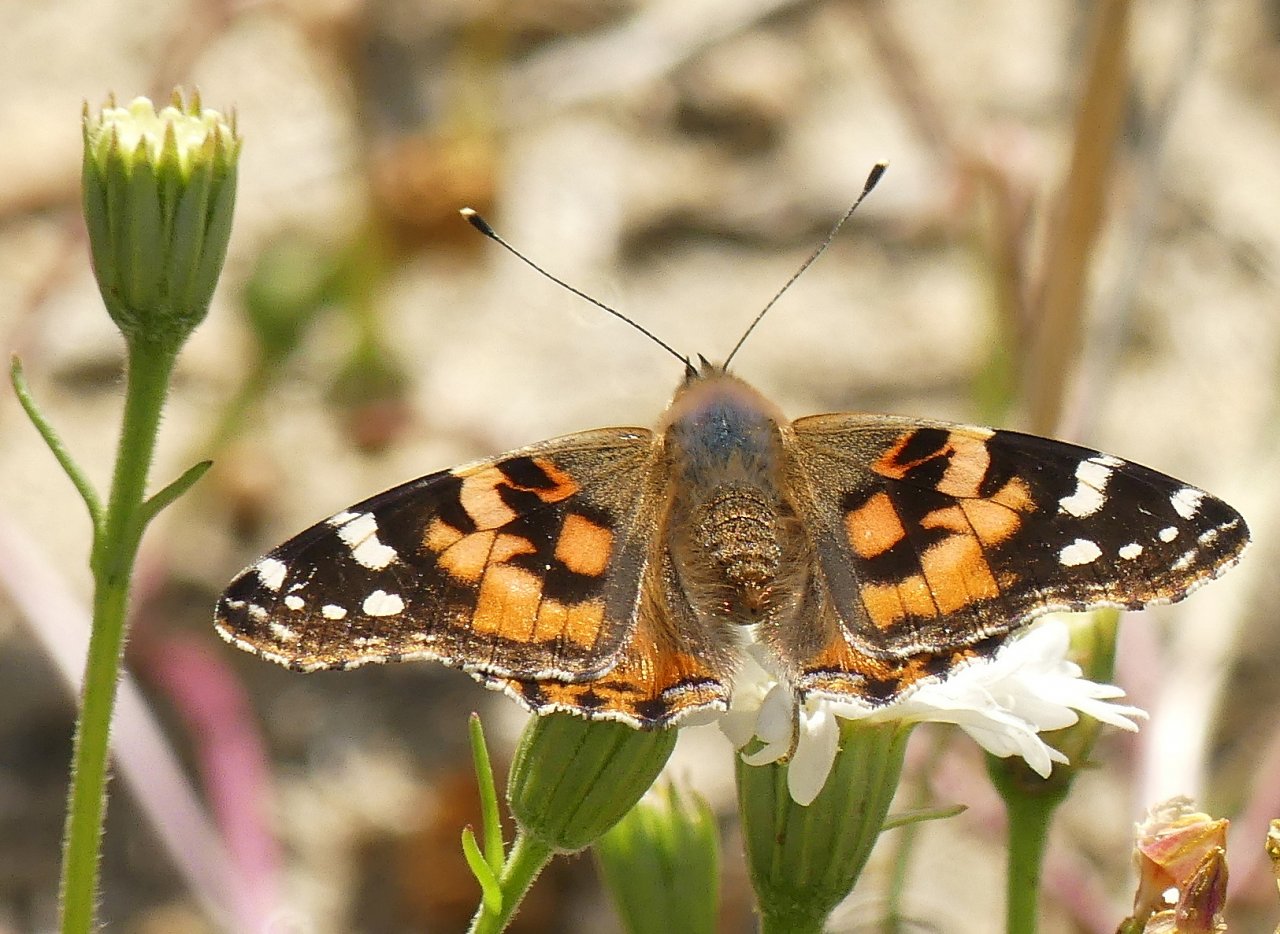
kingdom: Animalia
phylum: Arthropoda
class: Insecta
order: Lepidoptera
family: Nymphalidae
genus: Vanessa
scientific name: Vanessa cardui
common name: Painted Lady
